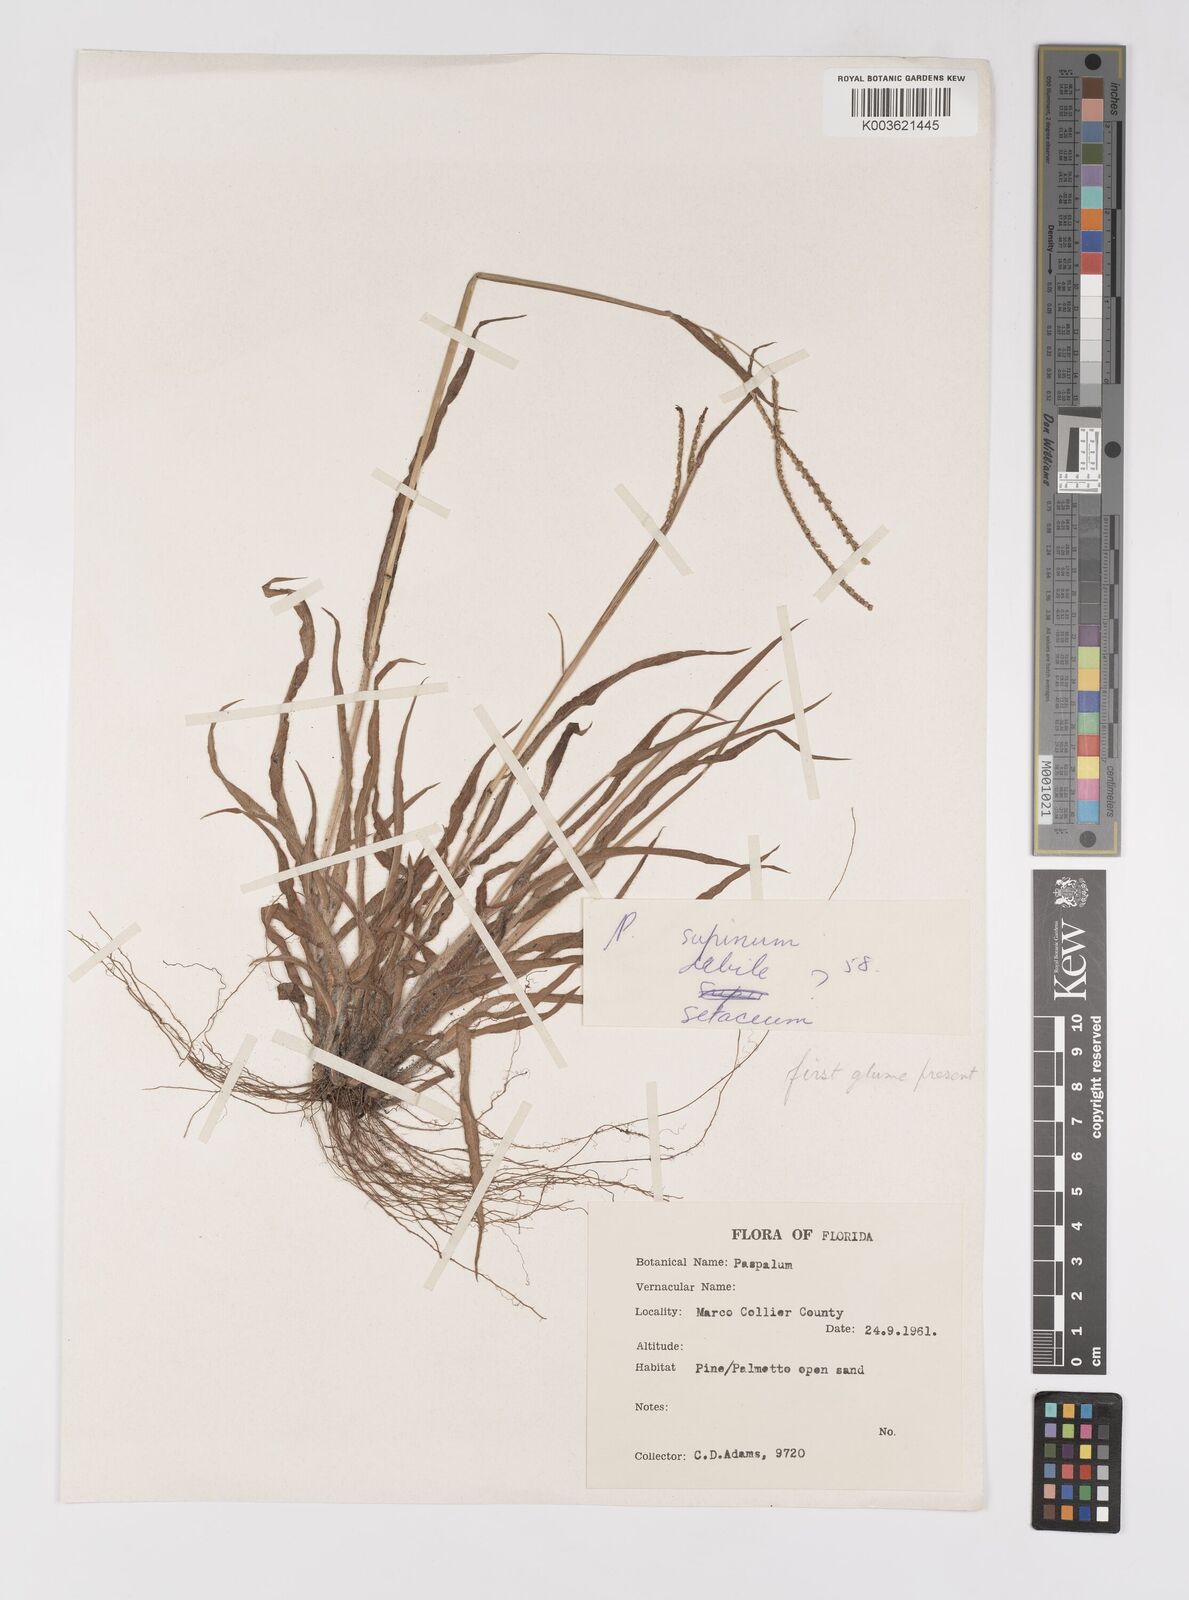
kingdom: Plantae
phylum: Tracheophyta
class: Liliopsida
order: Poales
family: Poaceae
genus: Paspalum
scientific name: Paspalum
